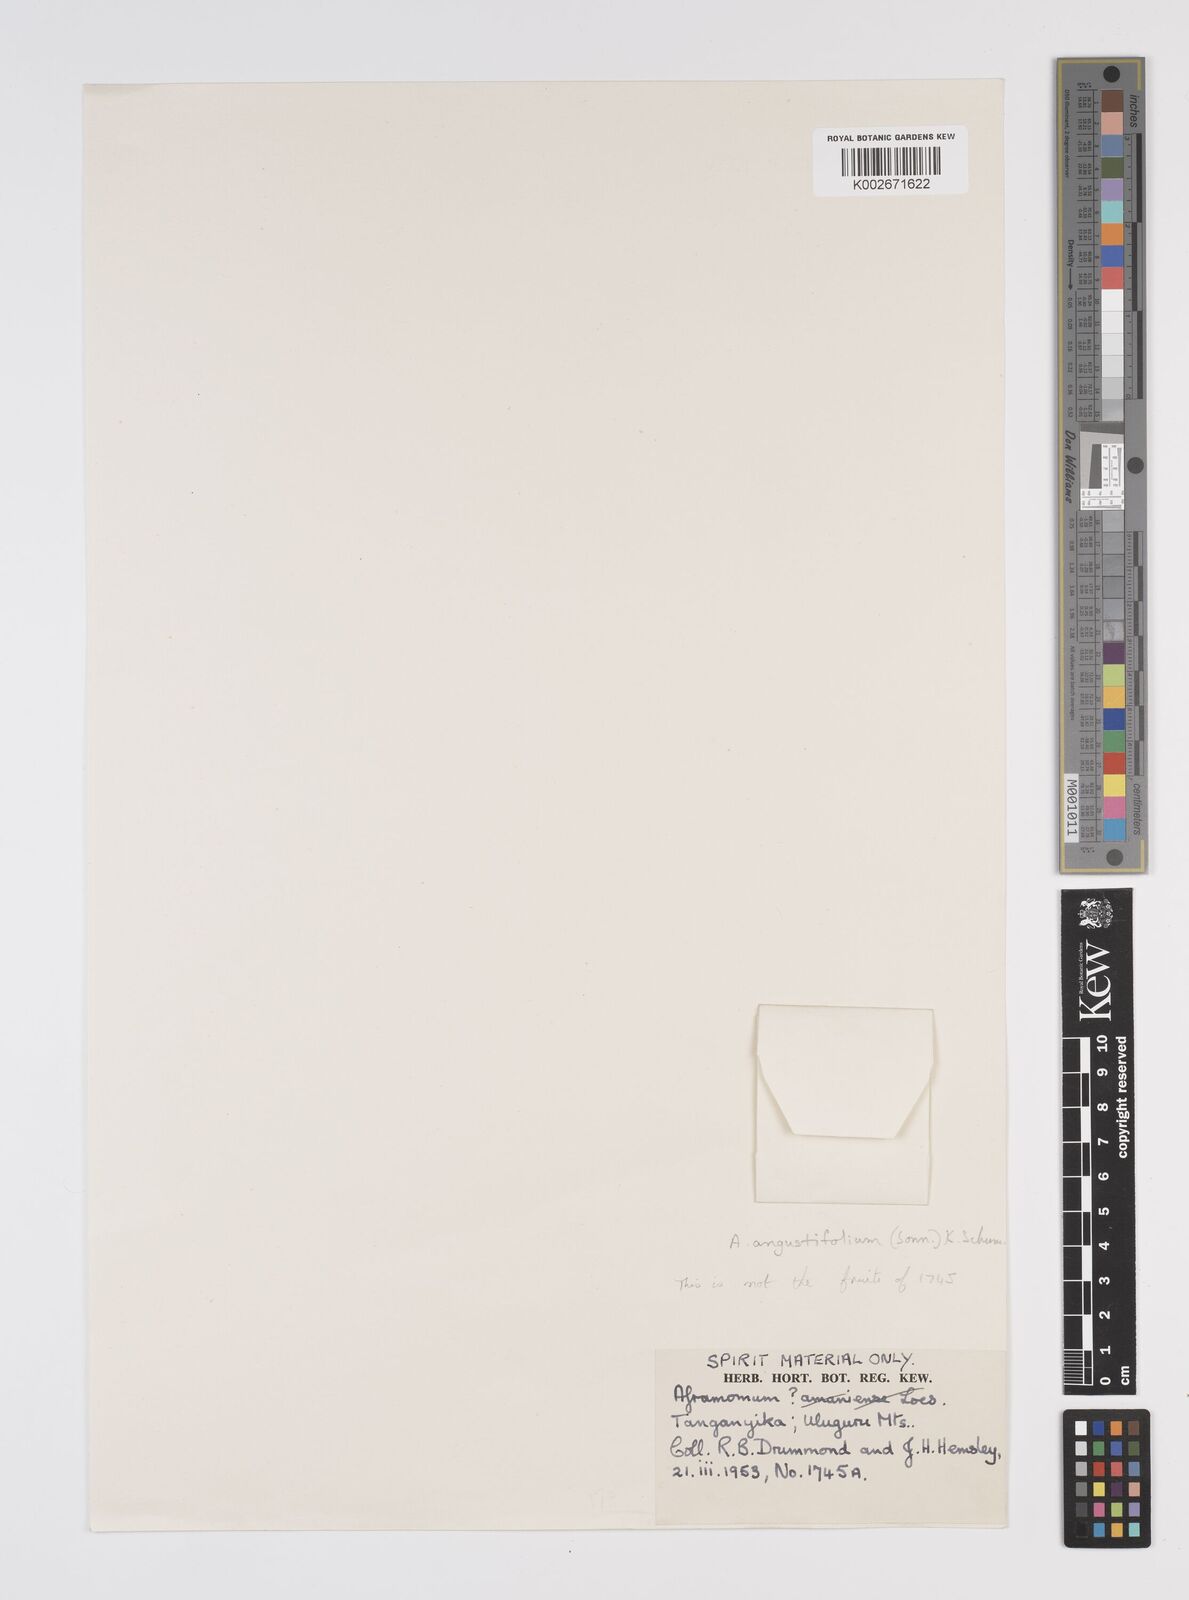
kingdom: Plantae
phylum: Tracheophyta
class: Liliopsida
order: Zingiberales
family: Zingiberaceae
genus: Aframomum
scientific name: Aframomum
